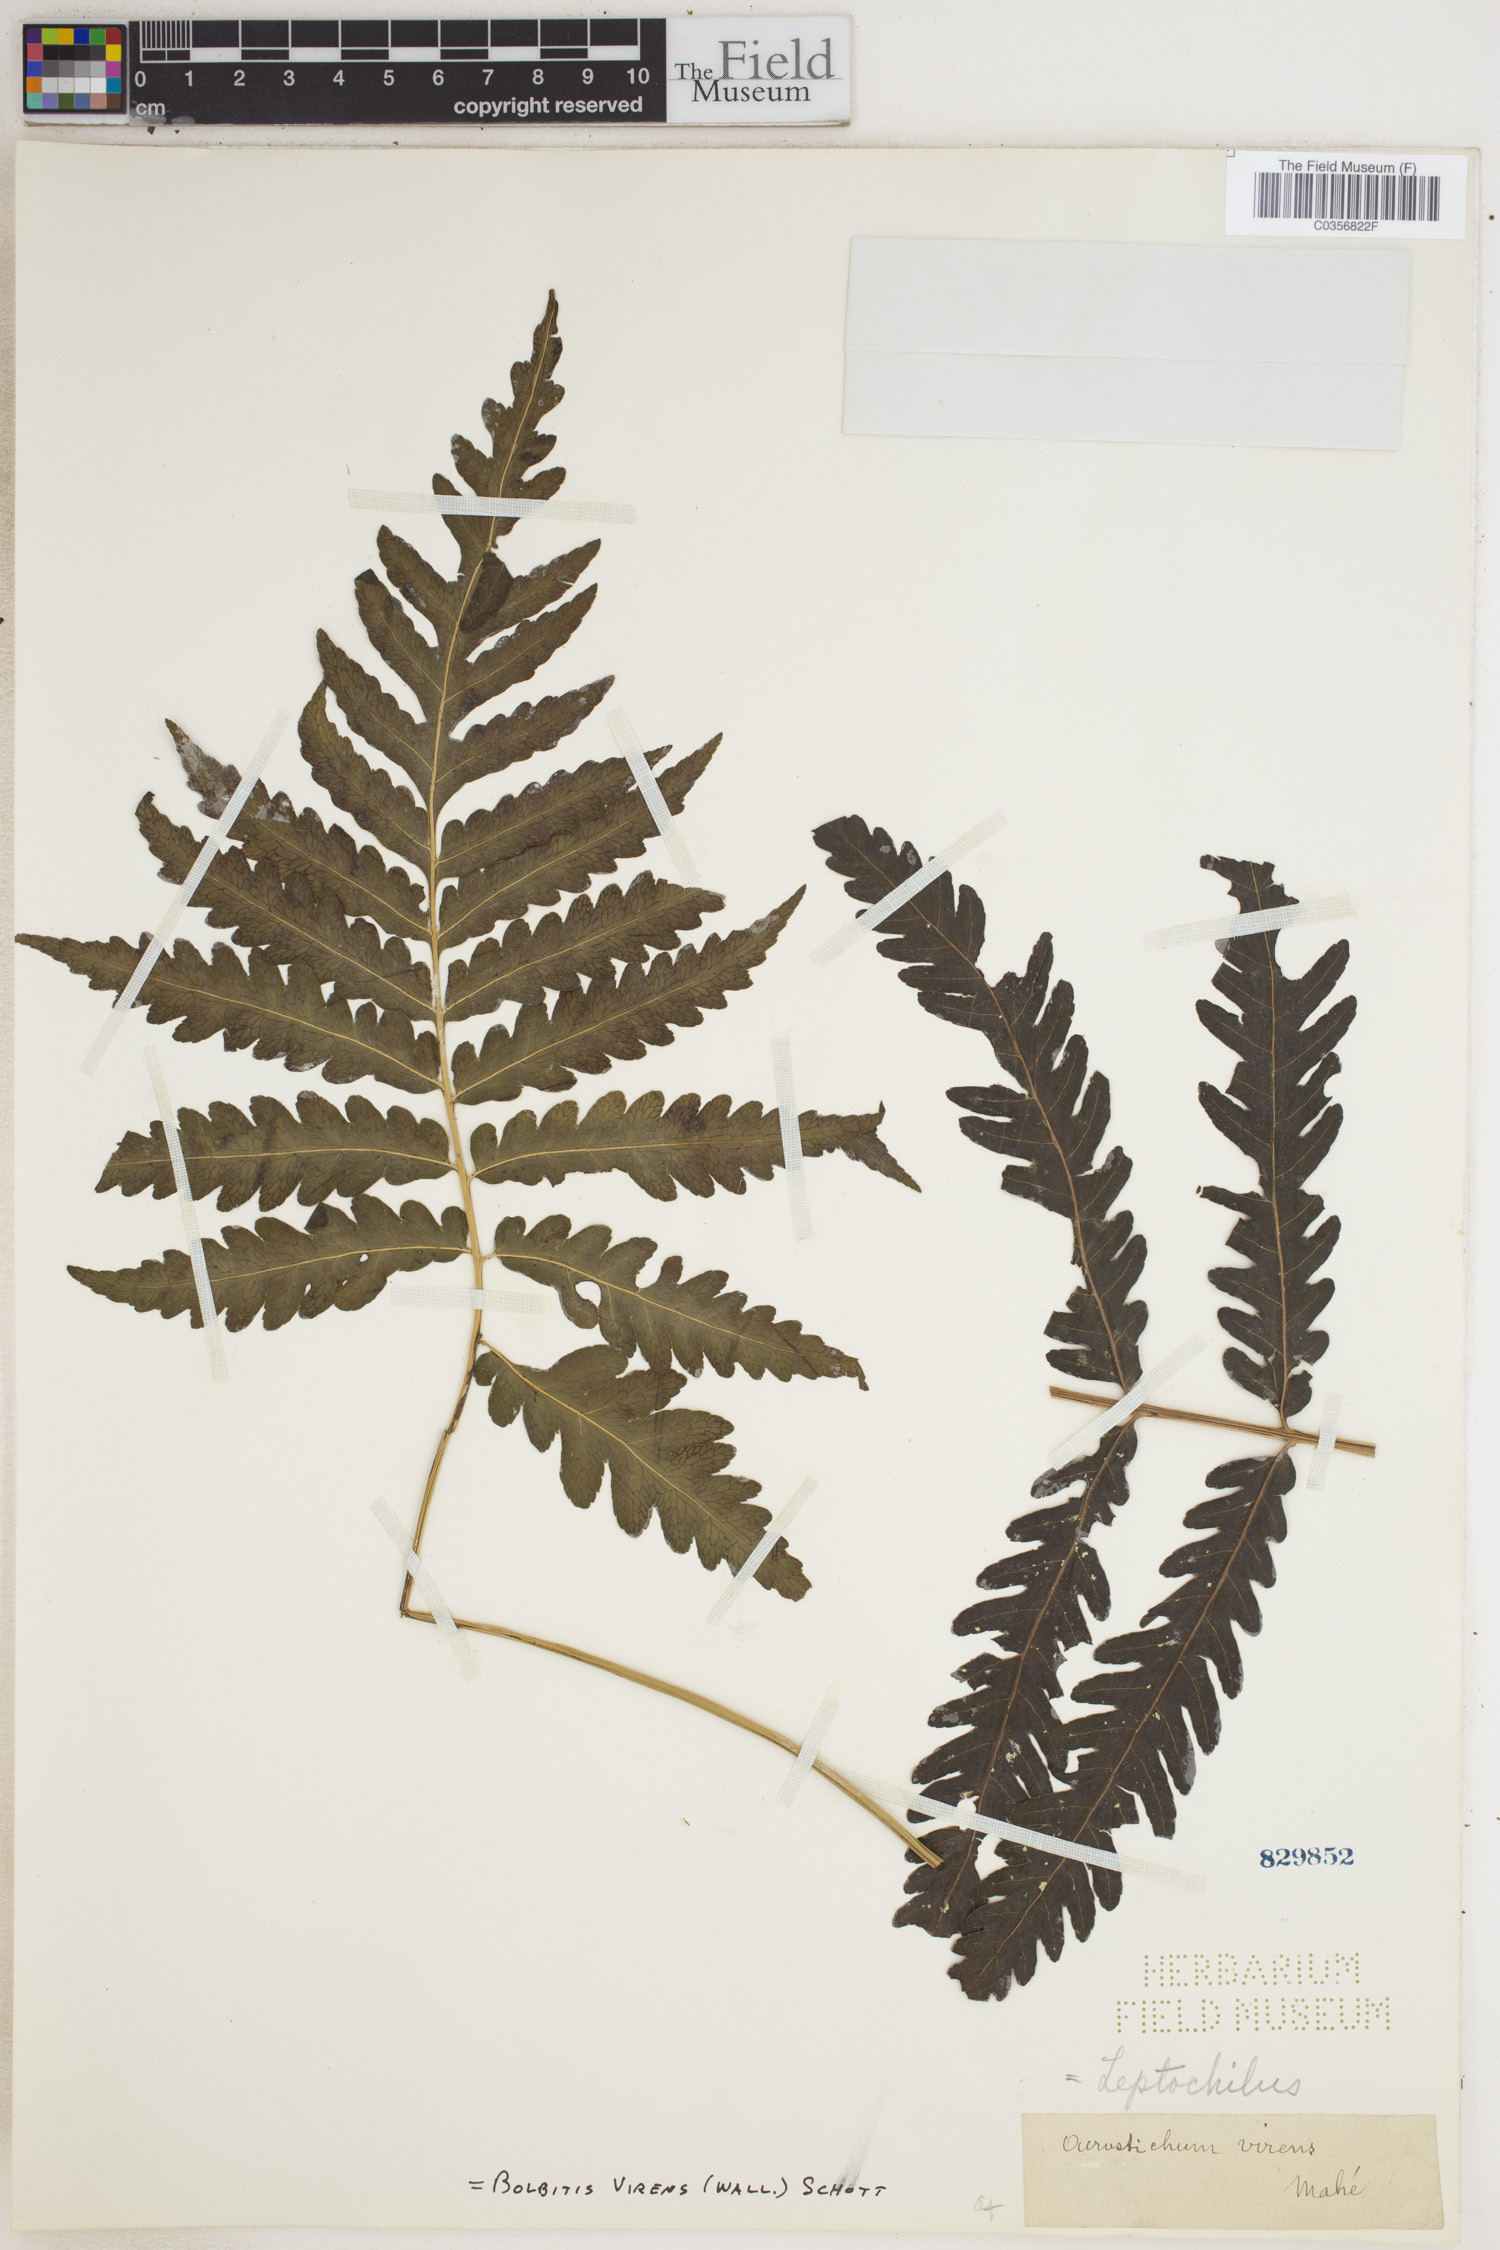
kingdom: Plantae
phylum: Tracheophyta
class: Polypodiopsida
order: Polypodiales
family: Dryopteridaceae
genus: Bolbitis
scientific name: Bolbitis virens
